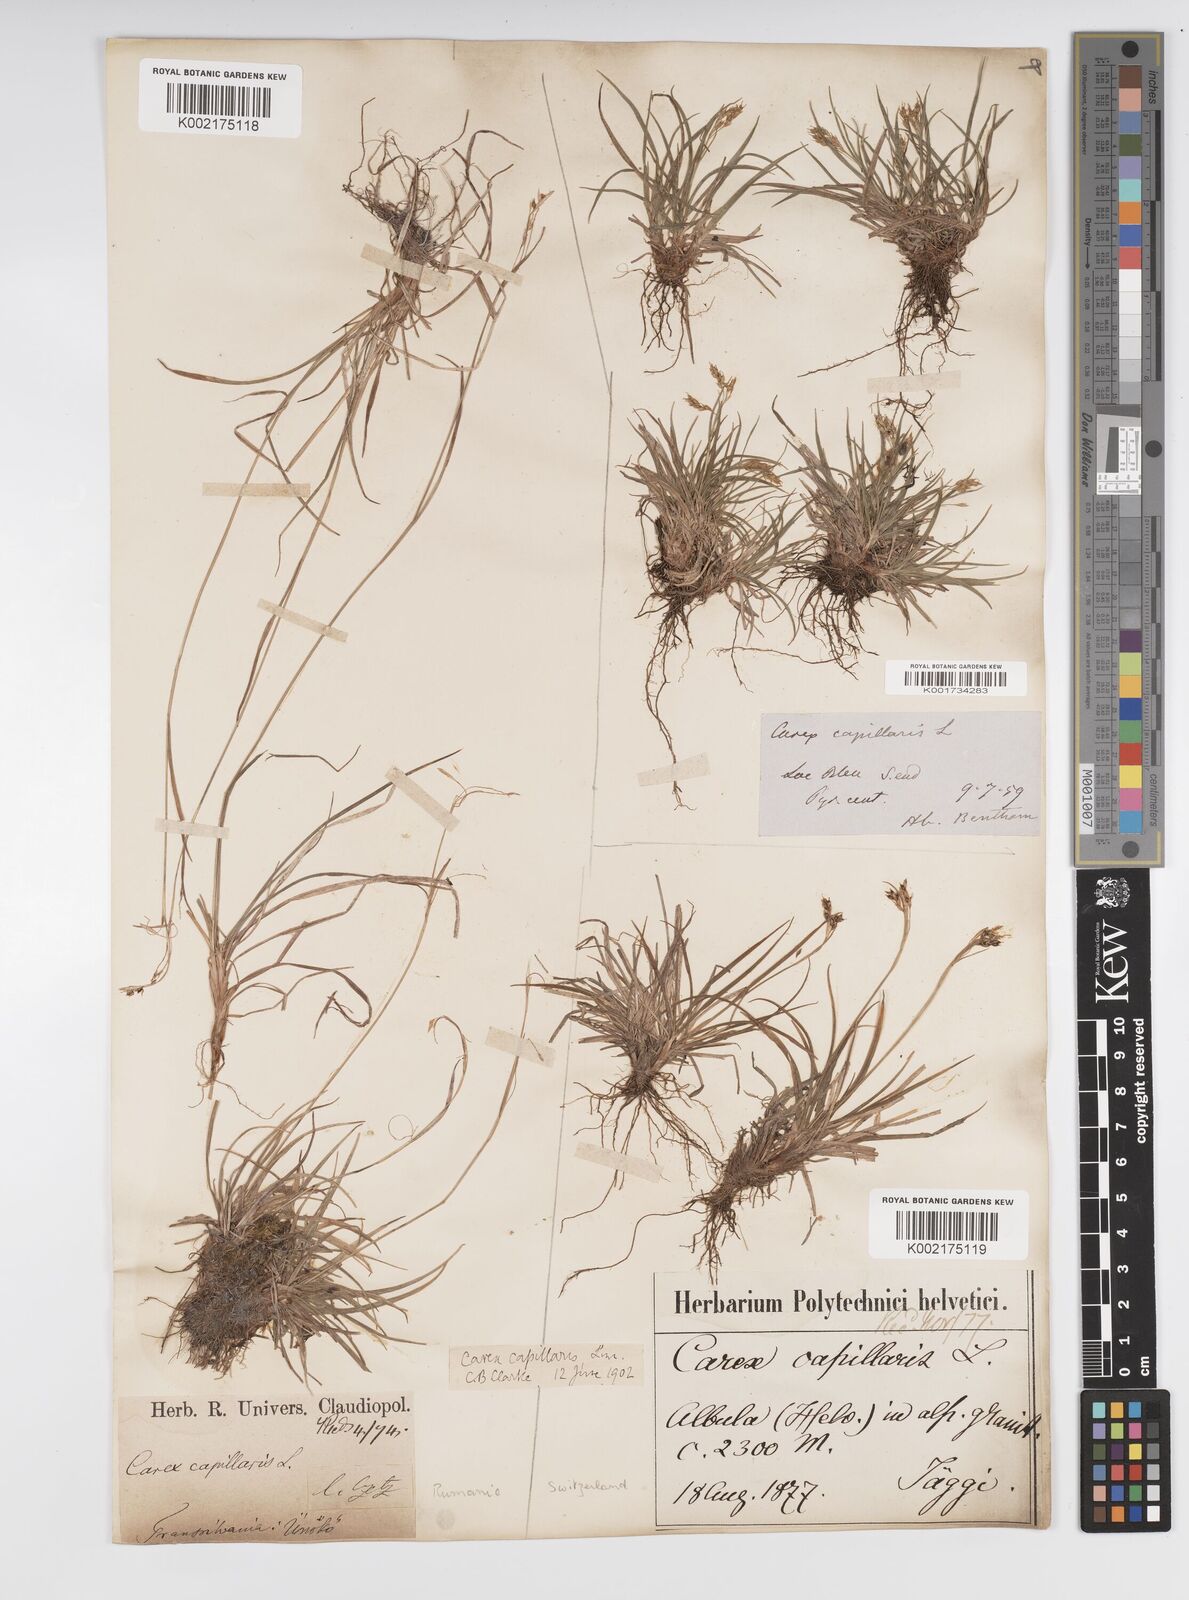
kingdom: Plantae
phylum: Tracheophyta
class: Liliopsida
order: Poales
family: Cyperaceae
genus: Carex
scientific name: Carex capillaris
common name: Hair sedge
